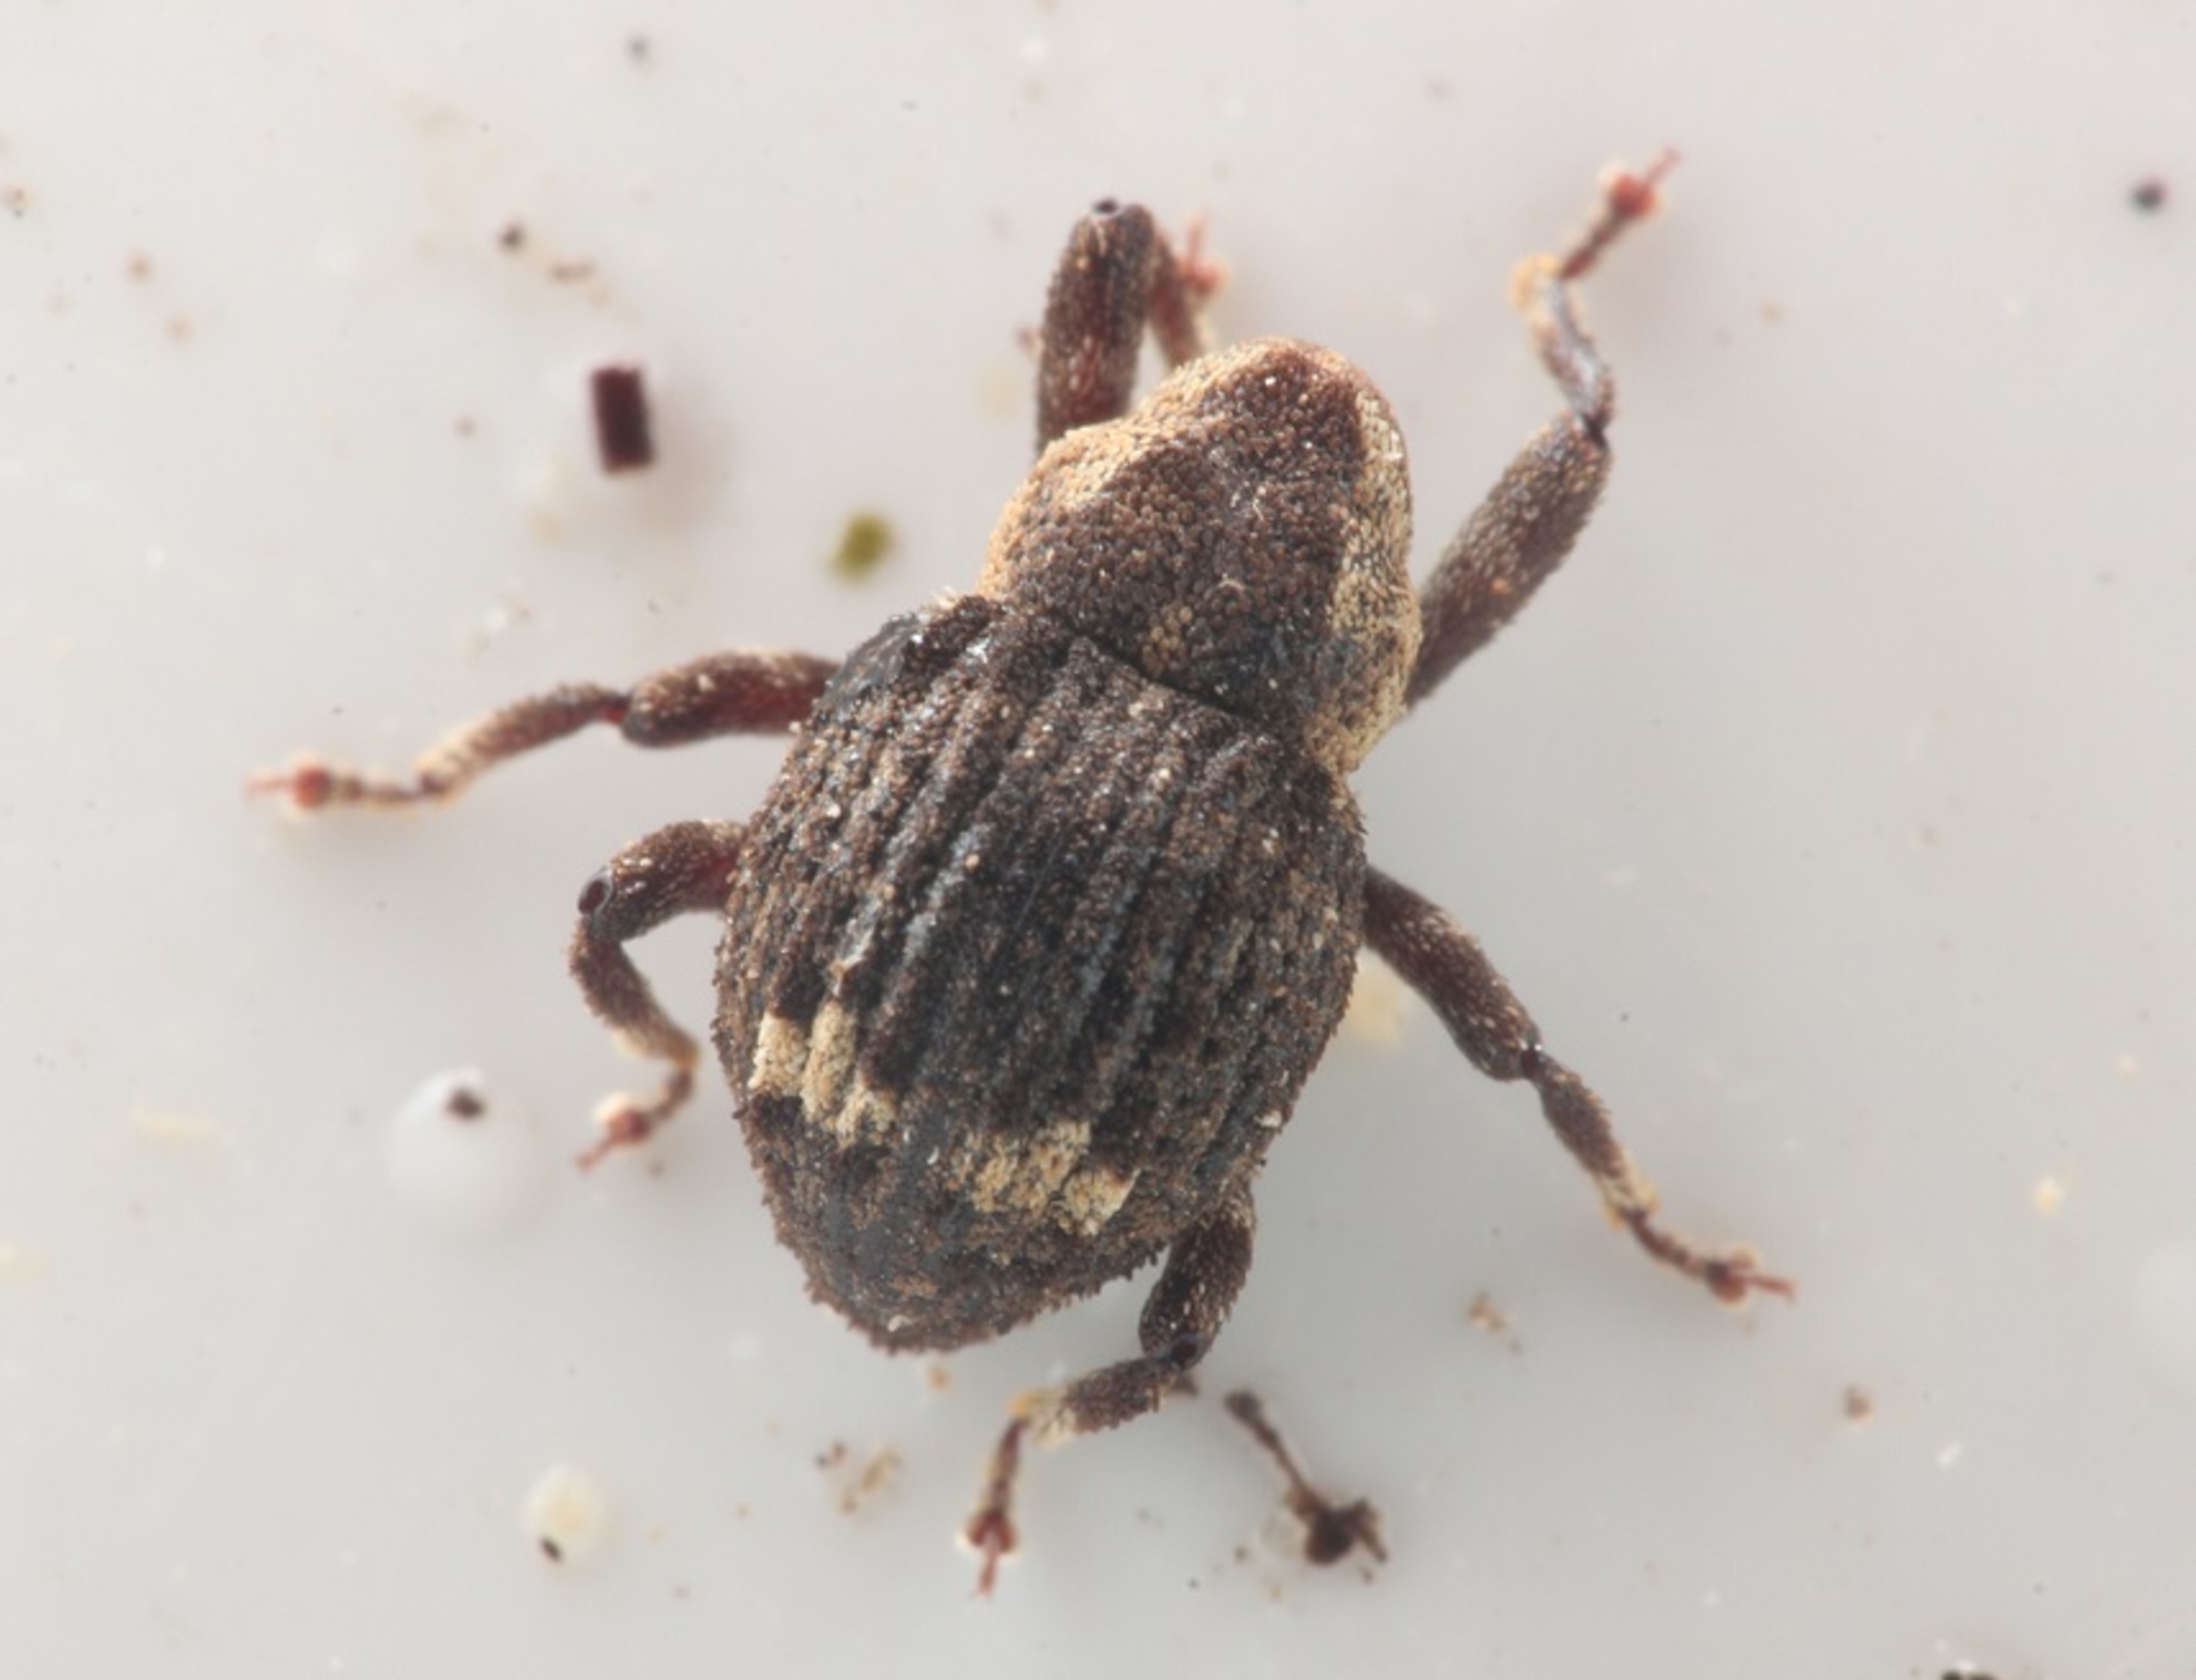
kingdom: Animalia
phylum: Arthropoda
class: Insecta
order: Coleoptera
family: Curculionidae
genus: Echinodera
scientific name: Echinodera hypocrita
